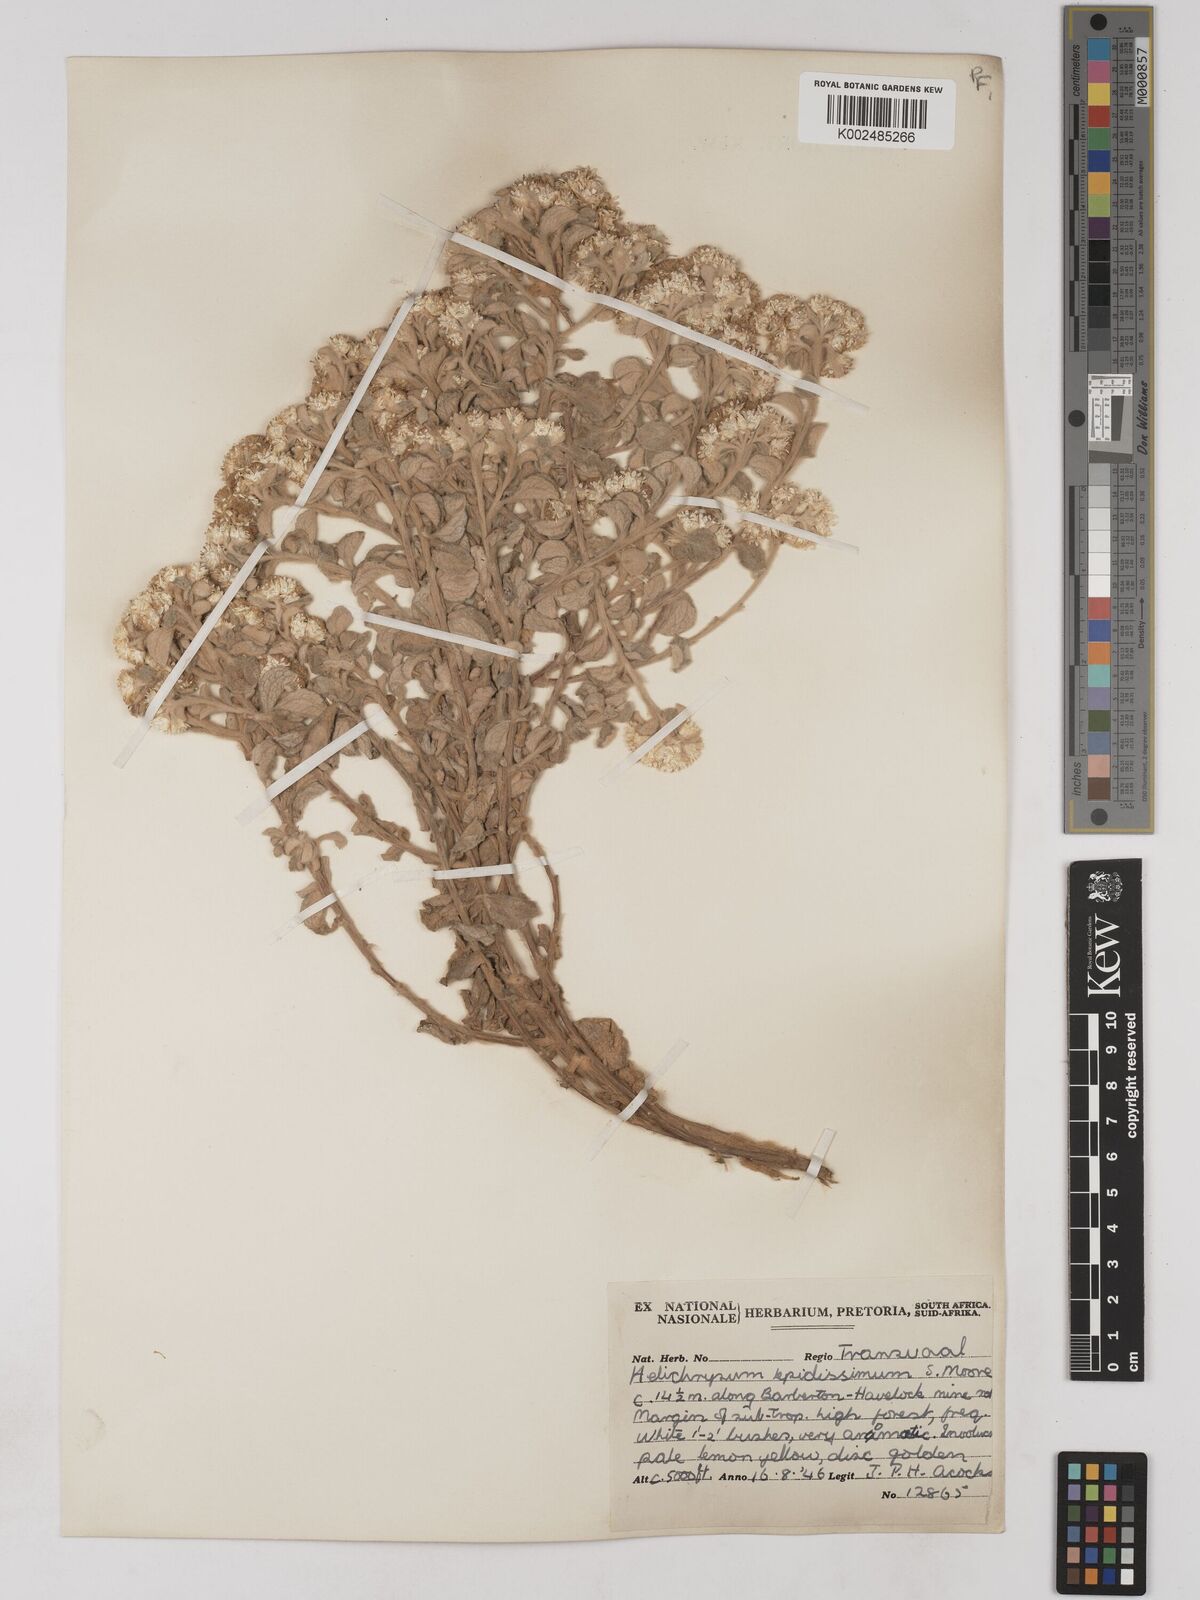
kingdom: Plantae
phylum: Tracheophyta
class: Magnoliopsida
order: Asterales
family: Asteraceae
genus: Helichrysum
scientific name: Helichrysum lepidissimum
